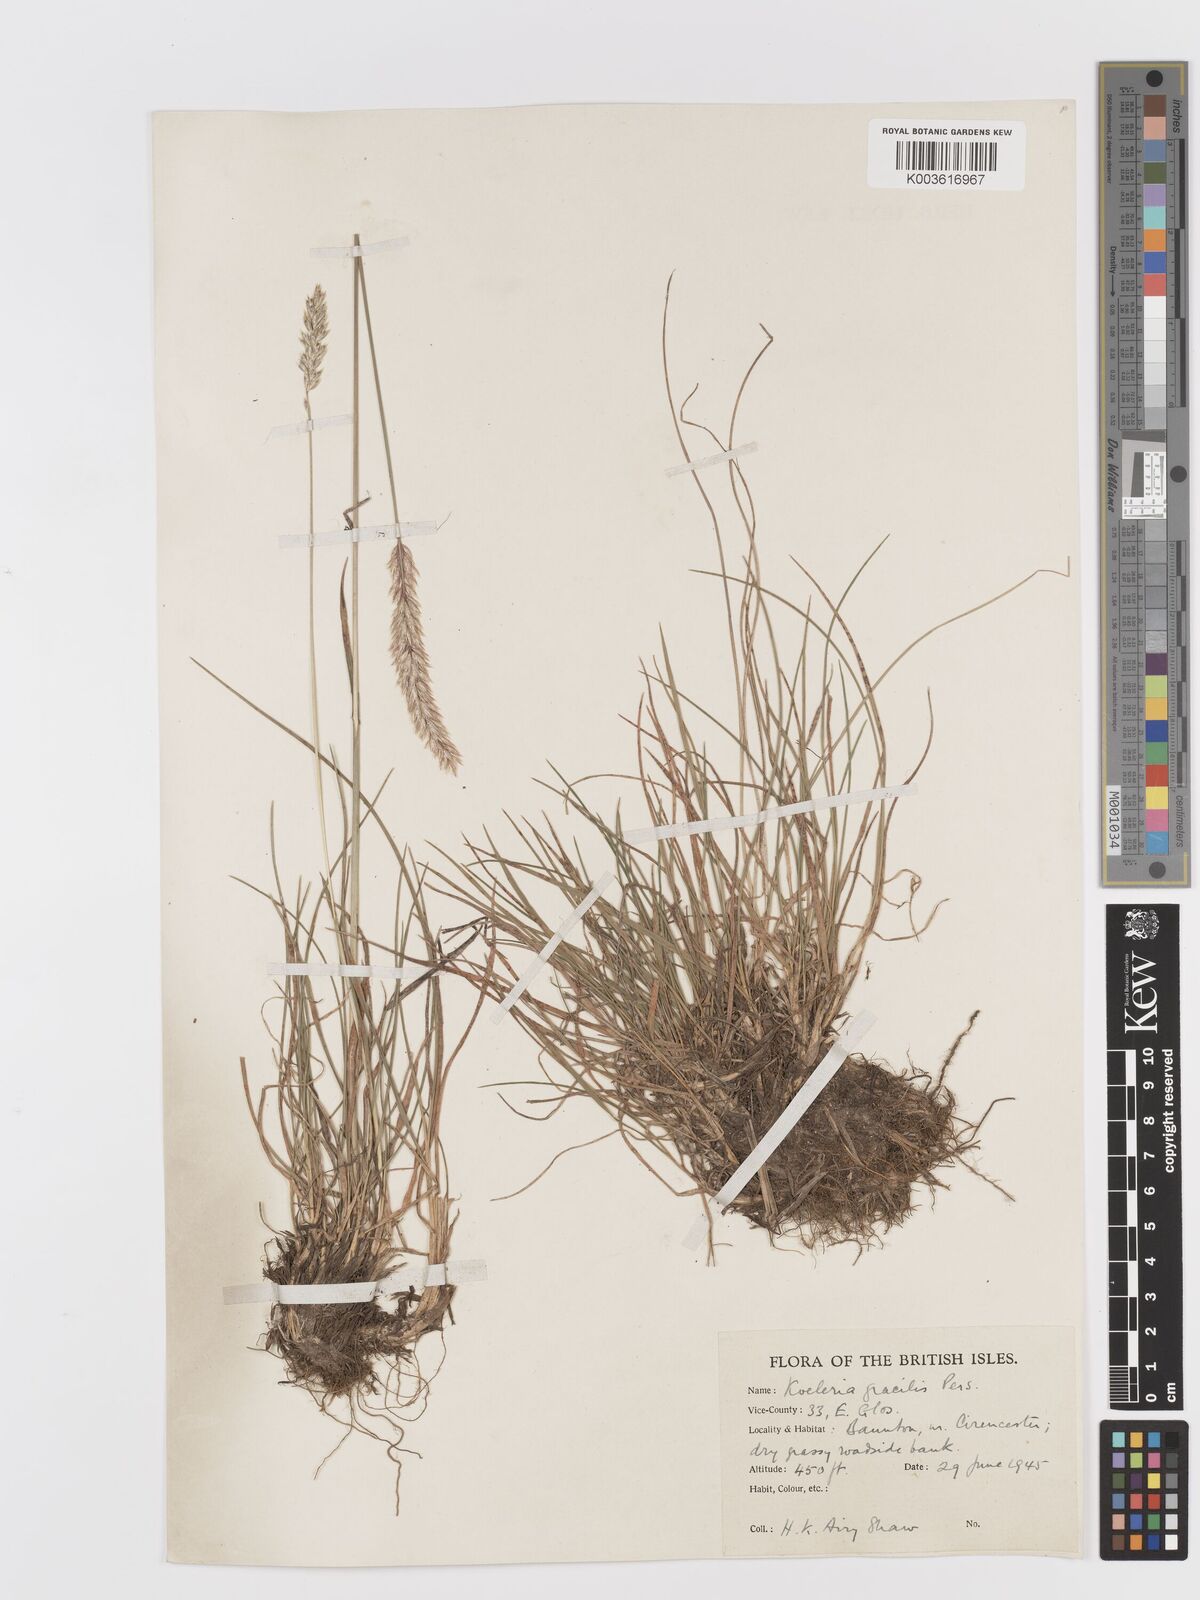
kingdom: Plantae
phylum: Tracheophyta
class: Liliopsida
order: Poales
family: Poaceae
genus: Koeleria
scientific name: Koeleria macrantha
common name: Crested hair-grass
